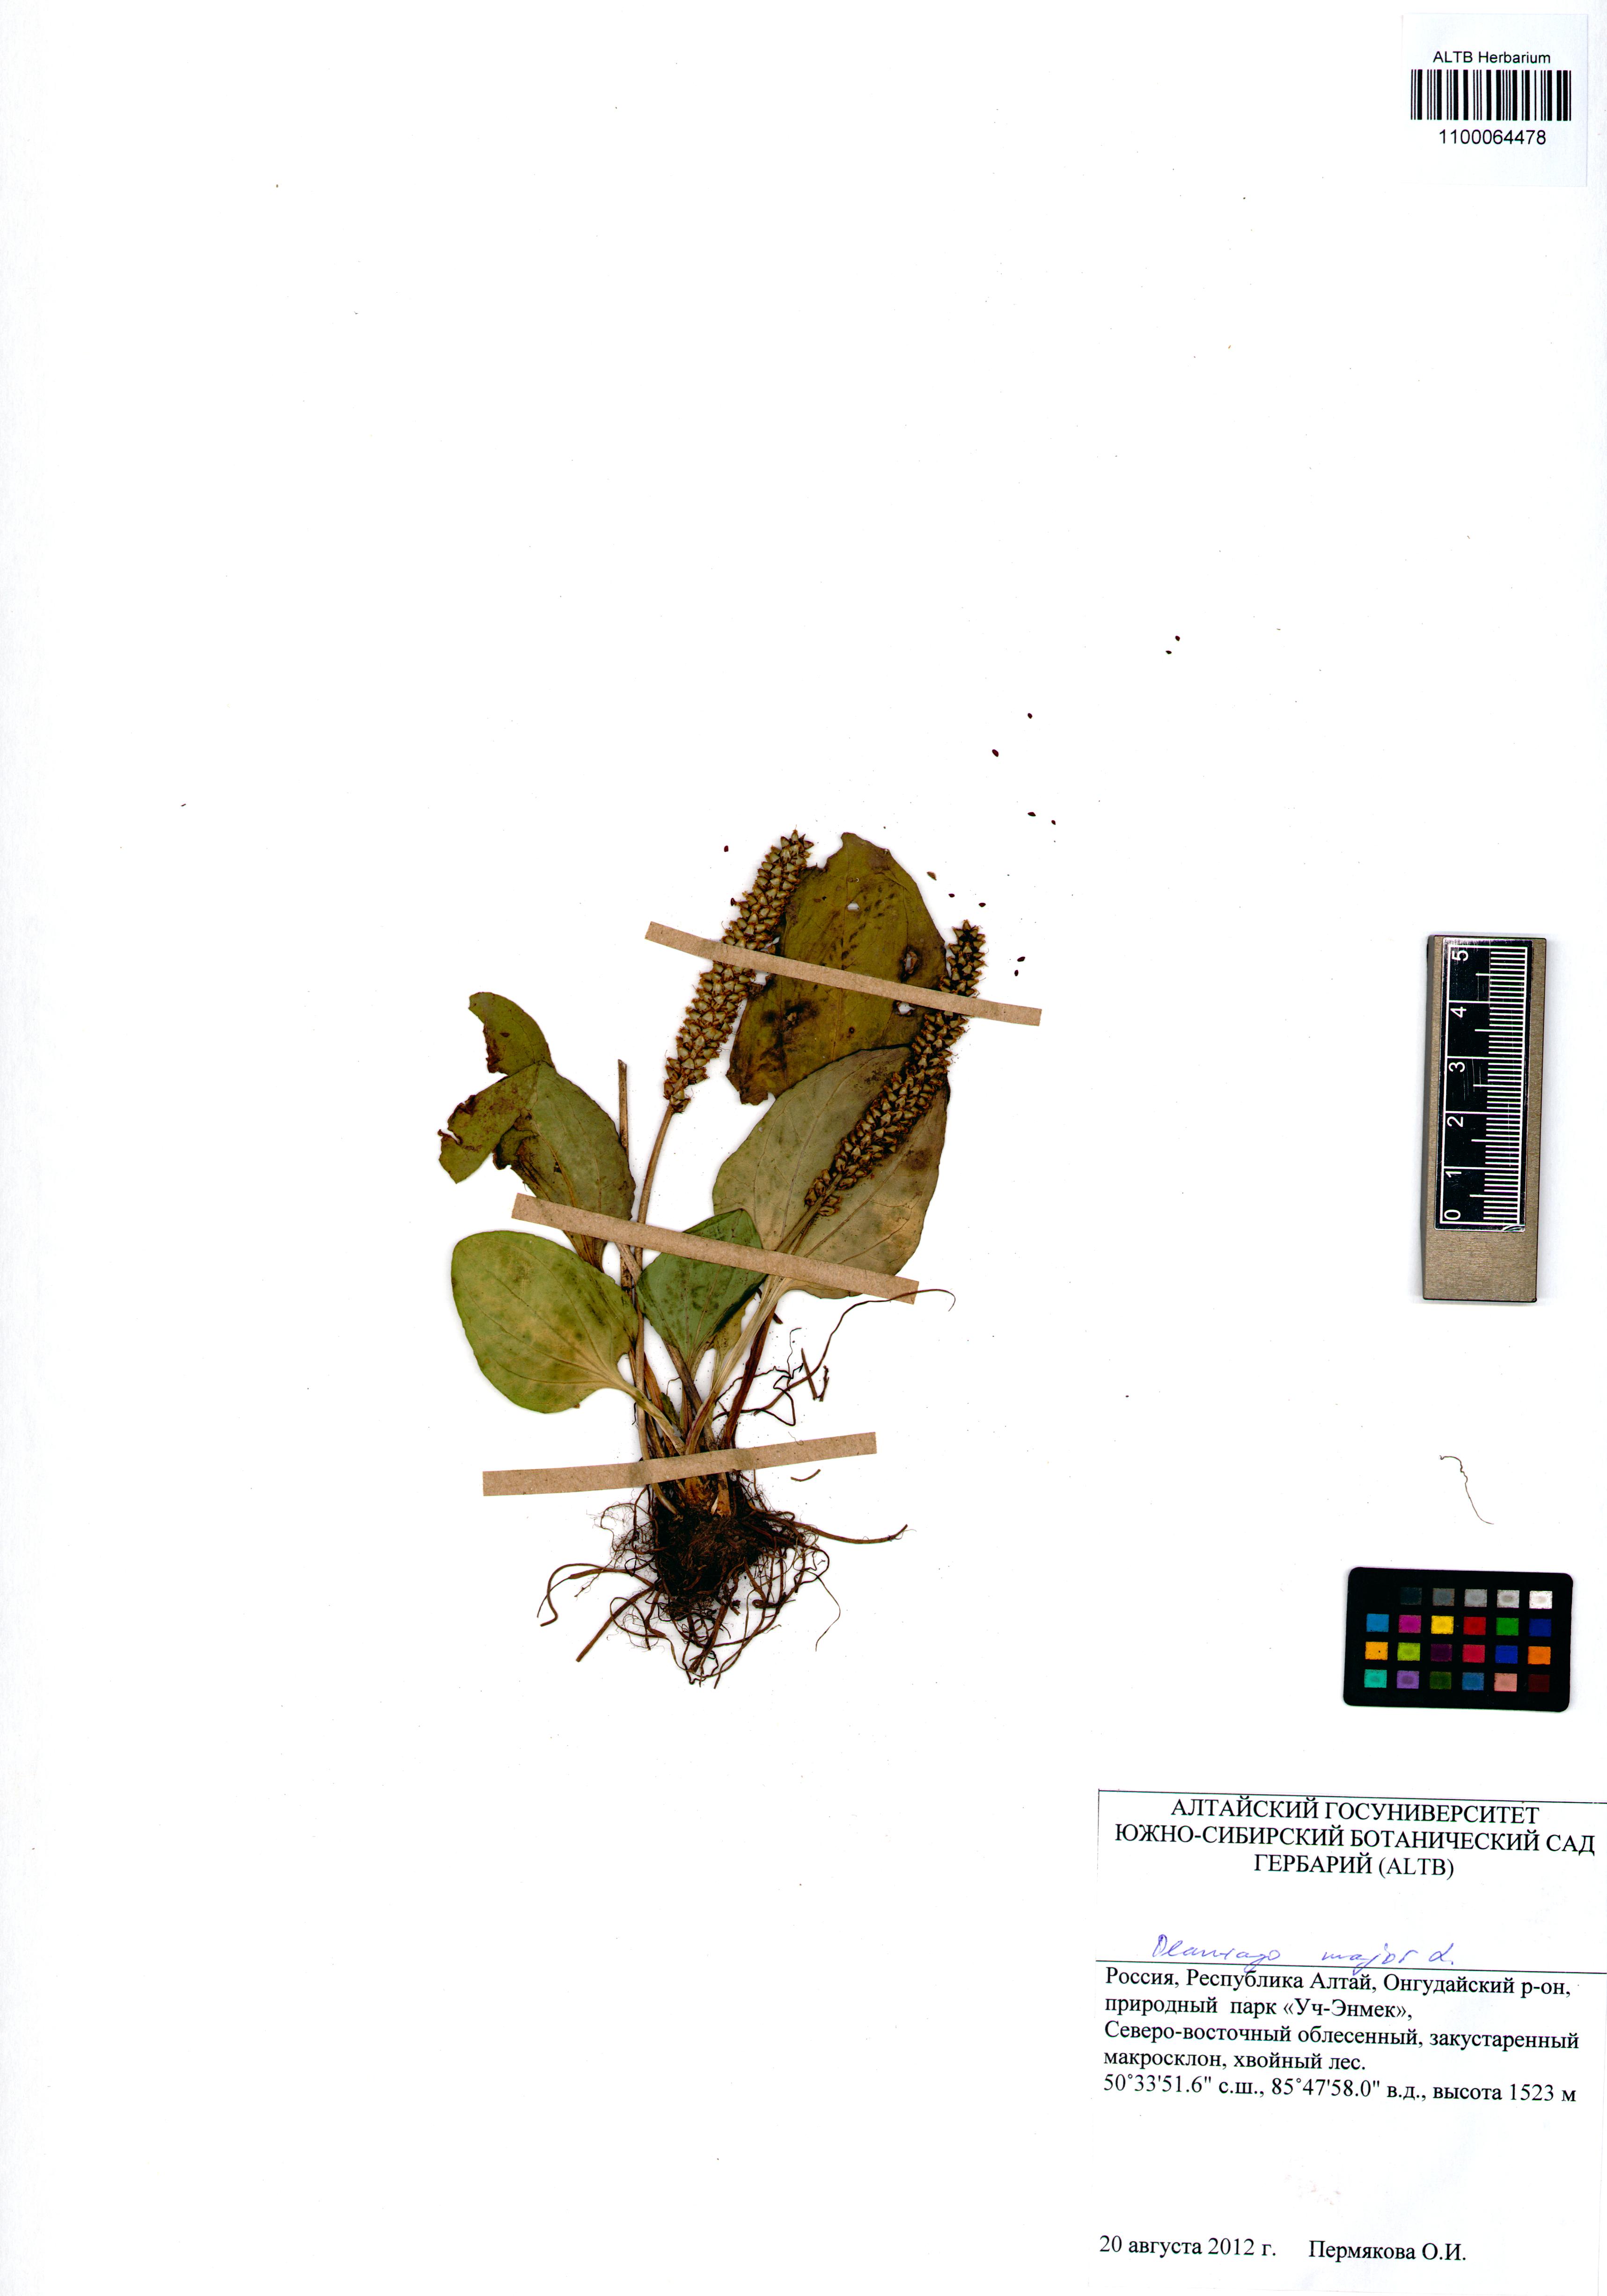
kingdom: Plantae
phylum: Tracheophyta
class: Magnoliopsida
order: Lamiales
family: Plantaginaceae
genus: Plantago
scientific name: Plantago major
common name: Common plantain
